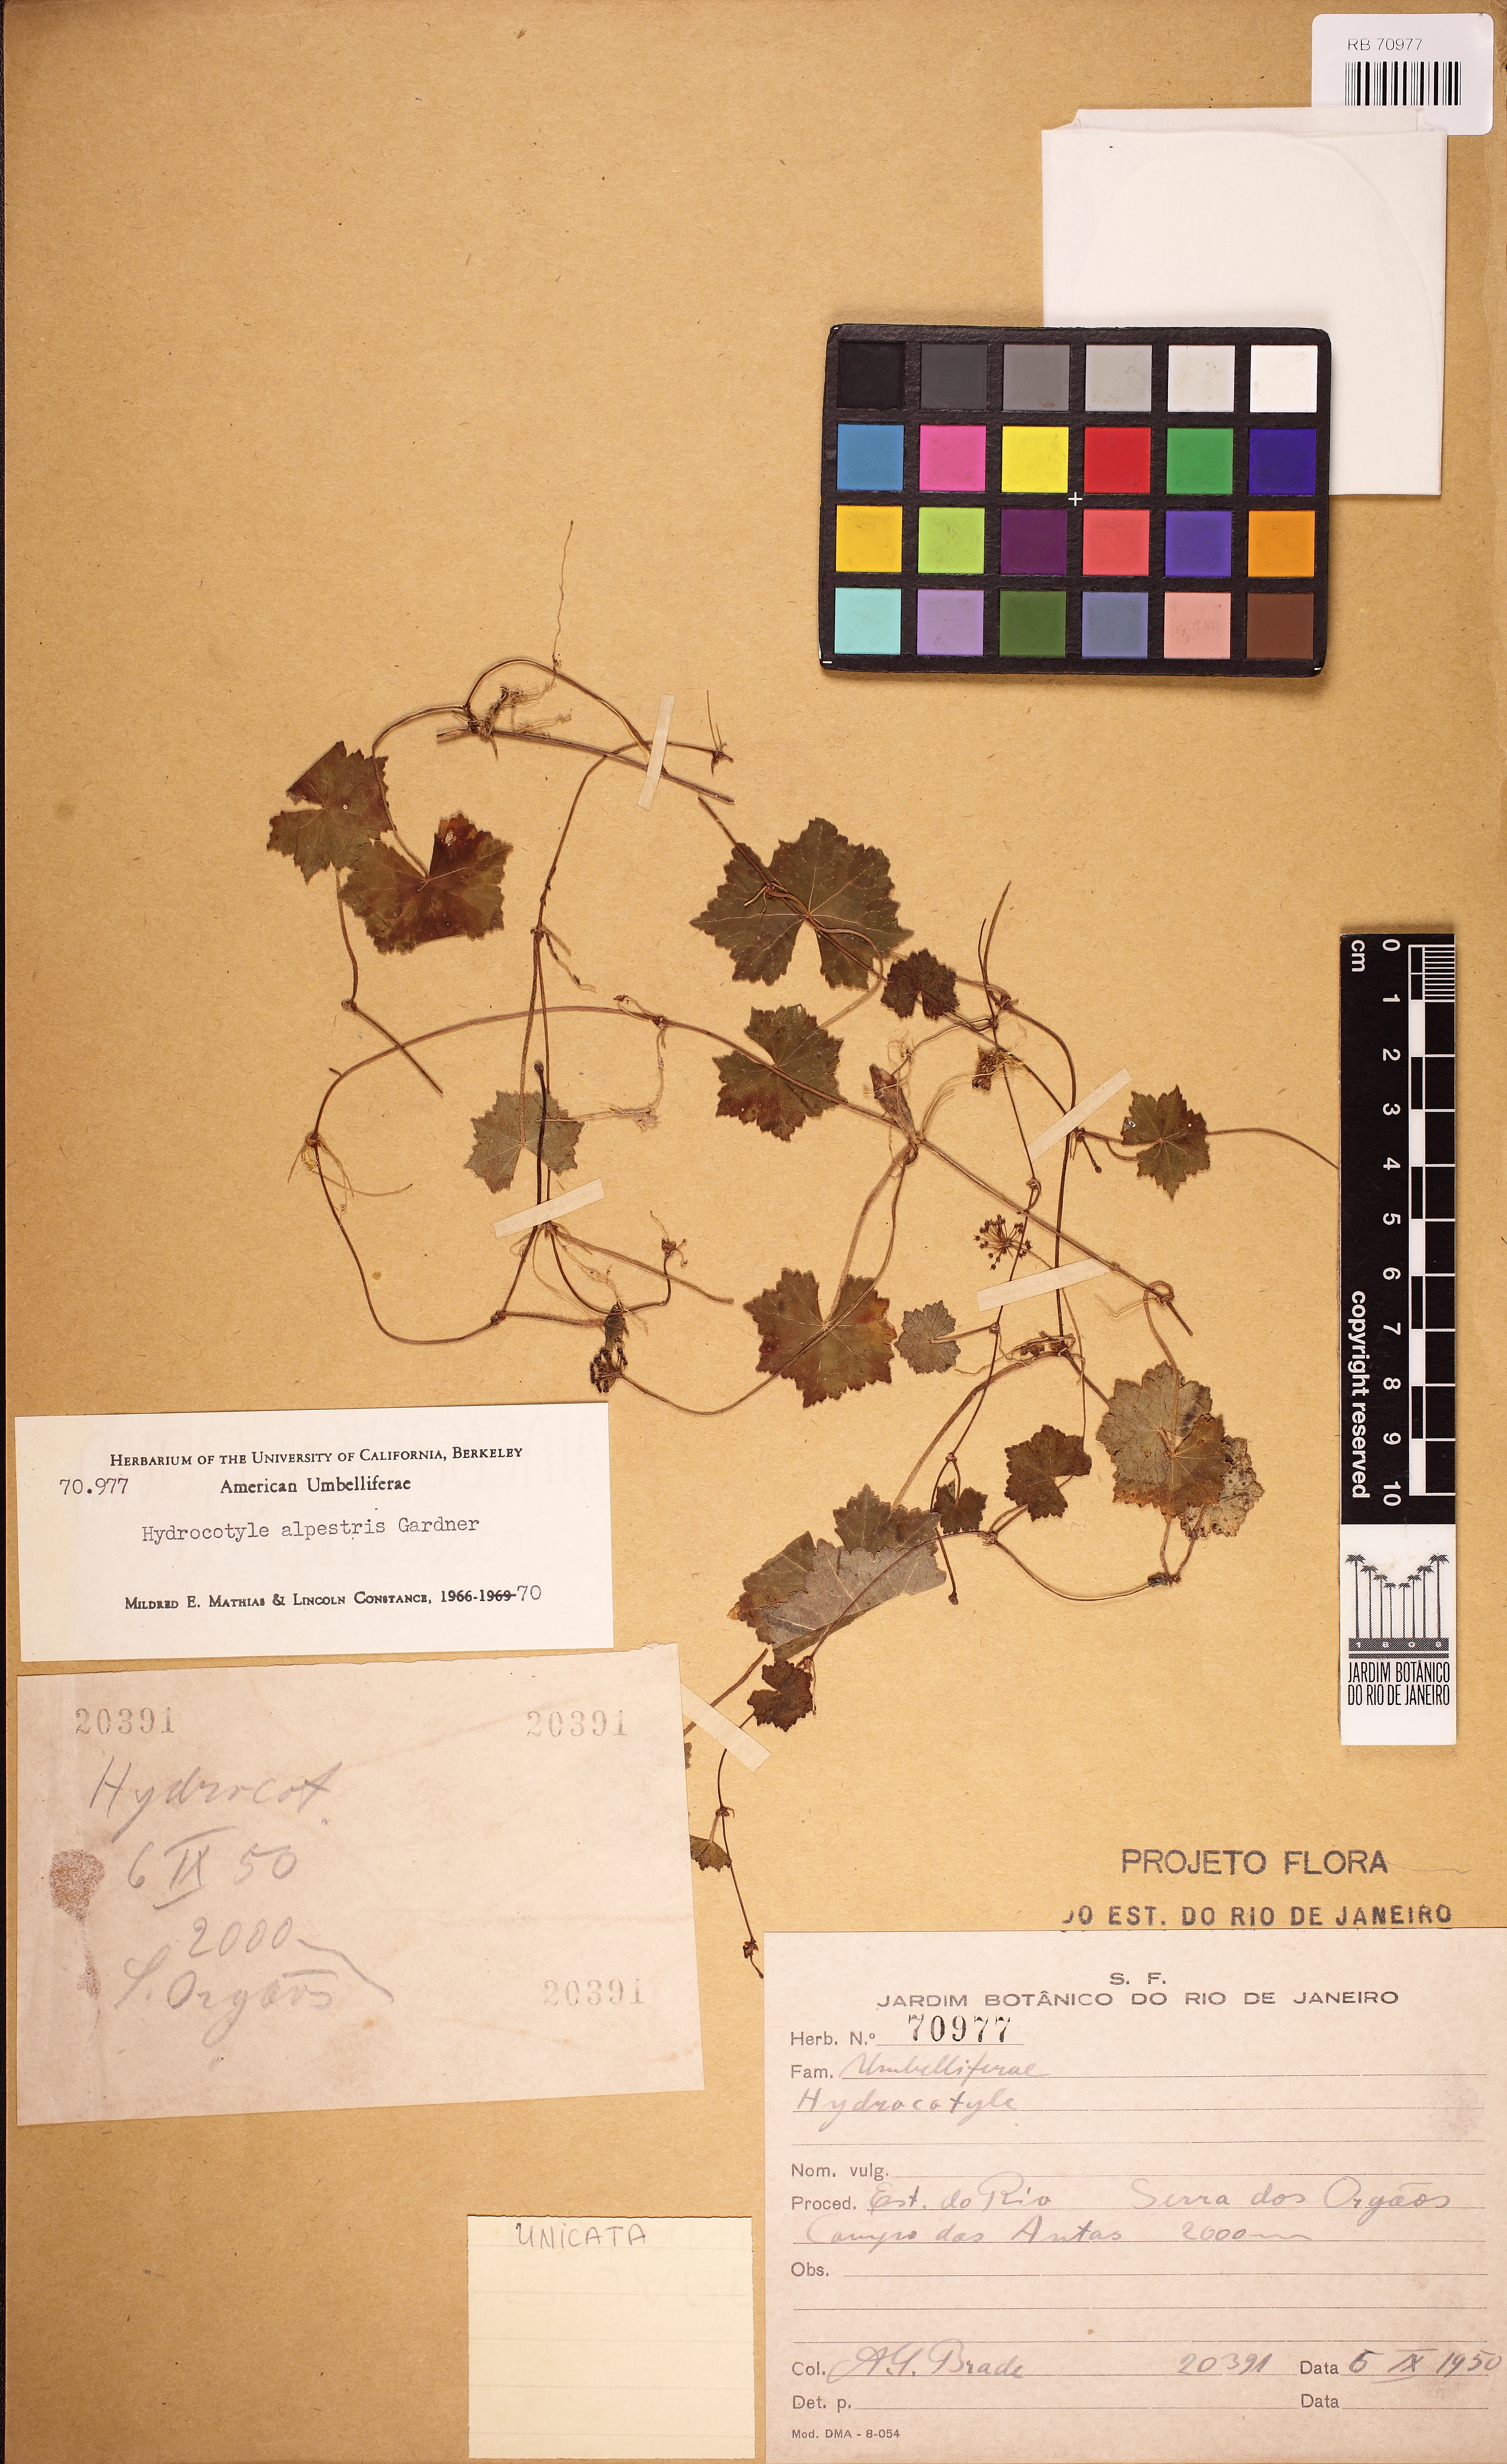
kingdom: Plantae
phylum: Tracheophyta
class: Magnoliopsida
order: Apiales
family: Araliaceae
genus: Hydrocotyle
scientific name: Hydrocotyle alpestris
